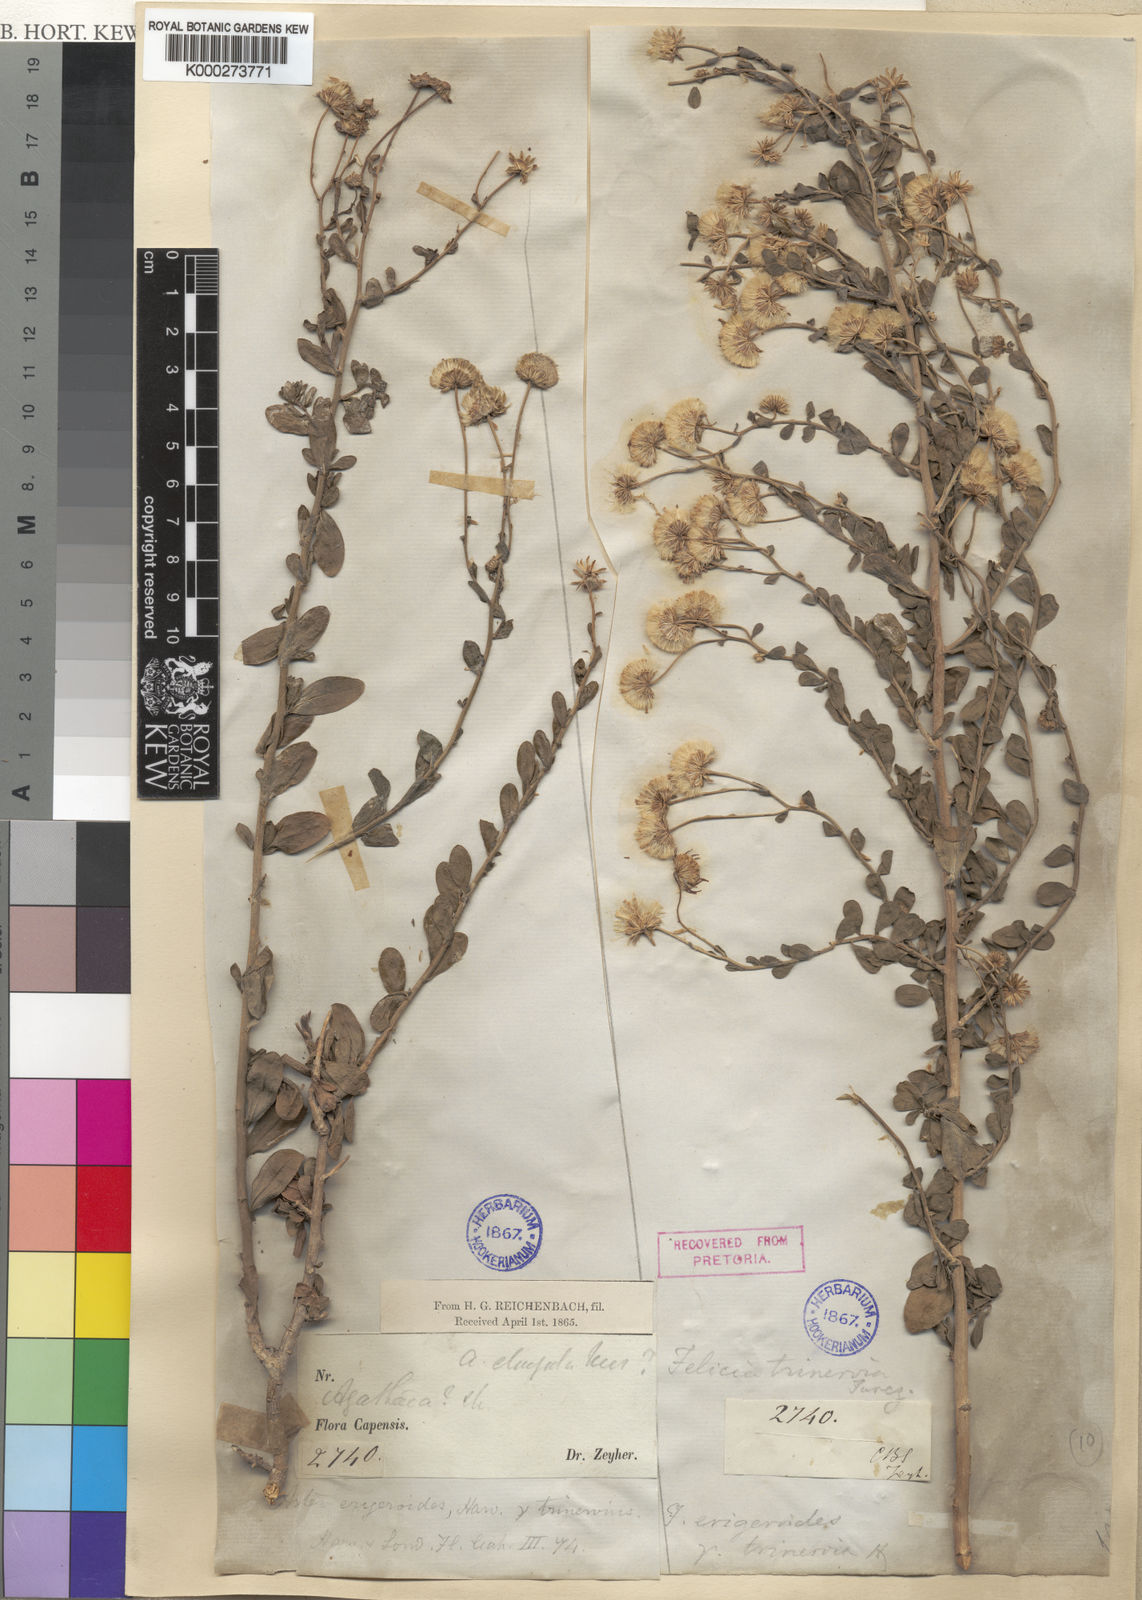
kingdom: Plantae
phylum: Tracheophyta
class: Magnoliopsida
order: Asterales
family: Asteraceae
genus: Felicia
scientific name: Felicia erigeroides
